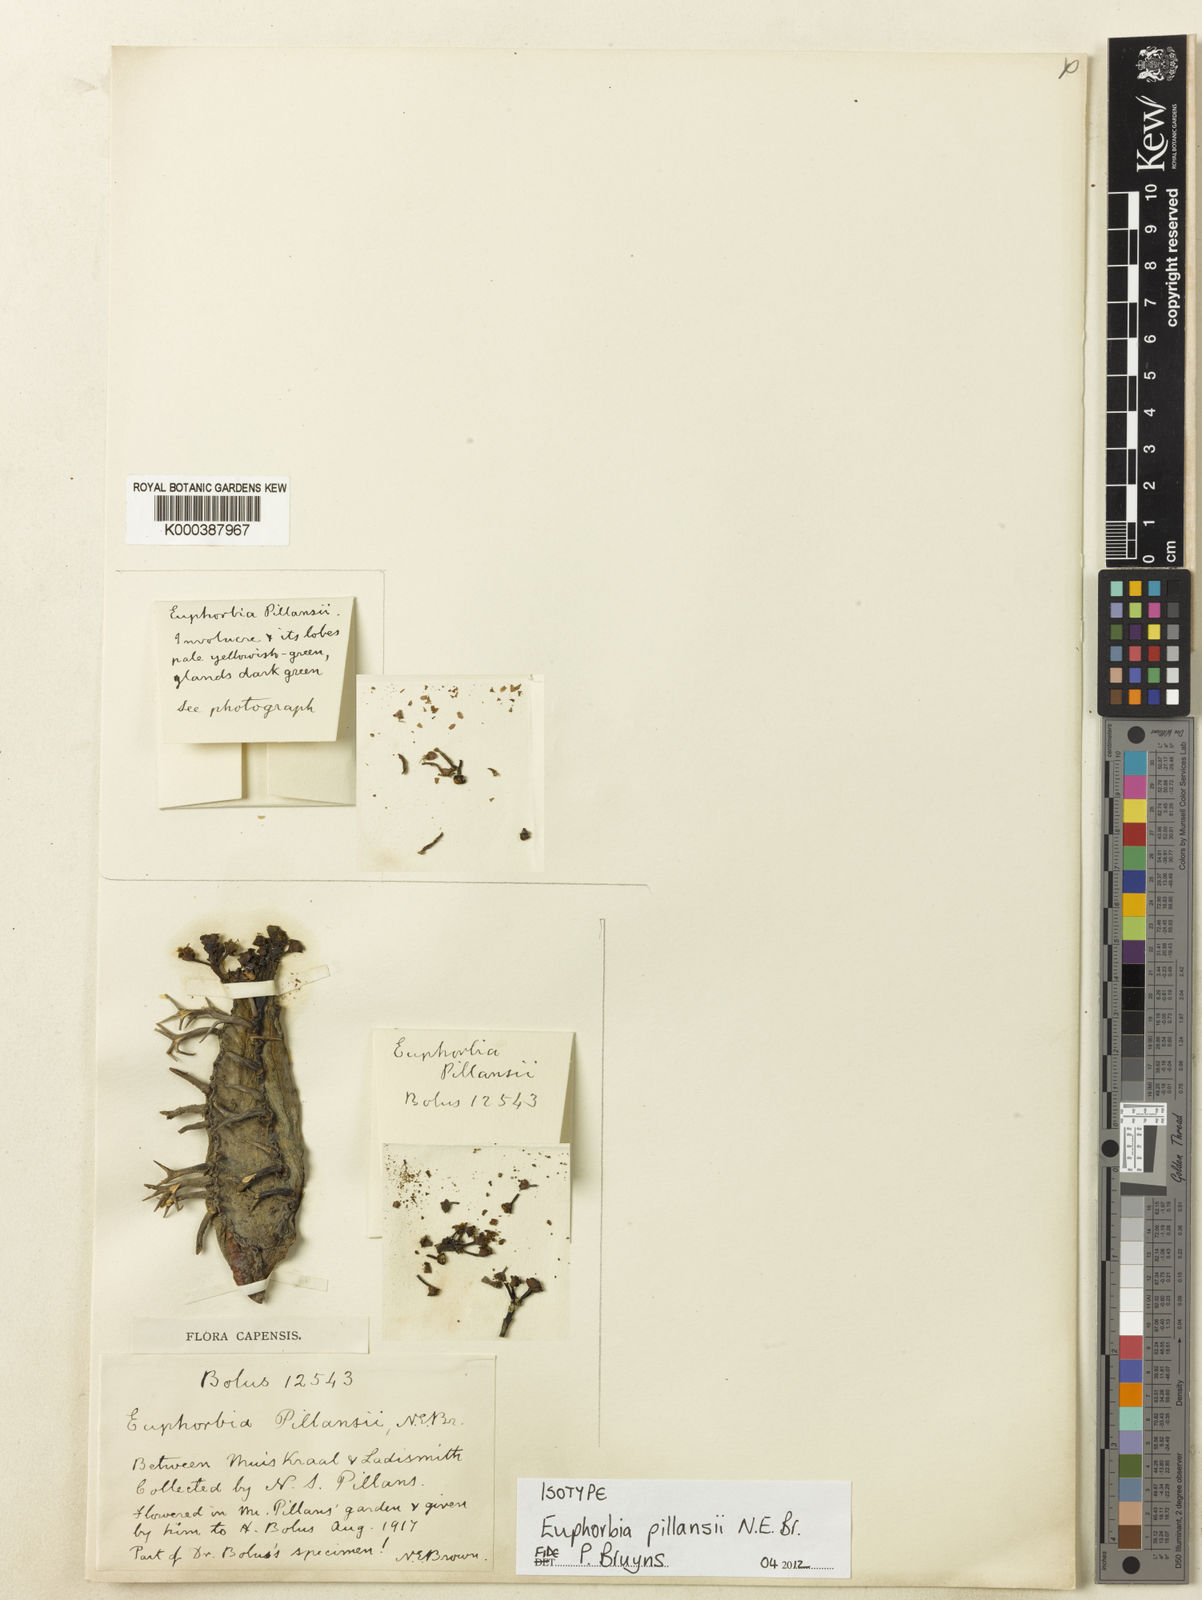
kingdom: Plantae
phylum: Tracheophyta
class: Magnoliopsida
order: Malpighiales
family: Euphorbiaceae
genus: Euphorbia
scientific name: Euphorbia pillansii
